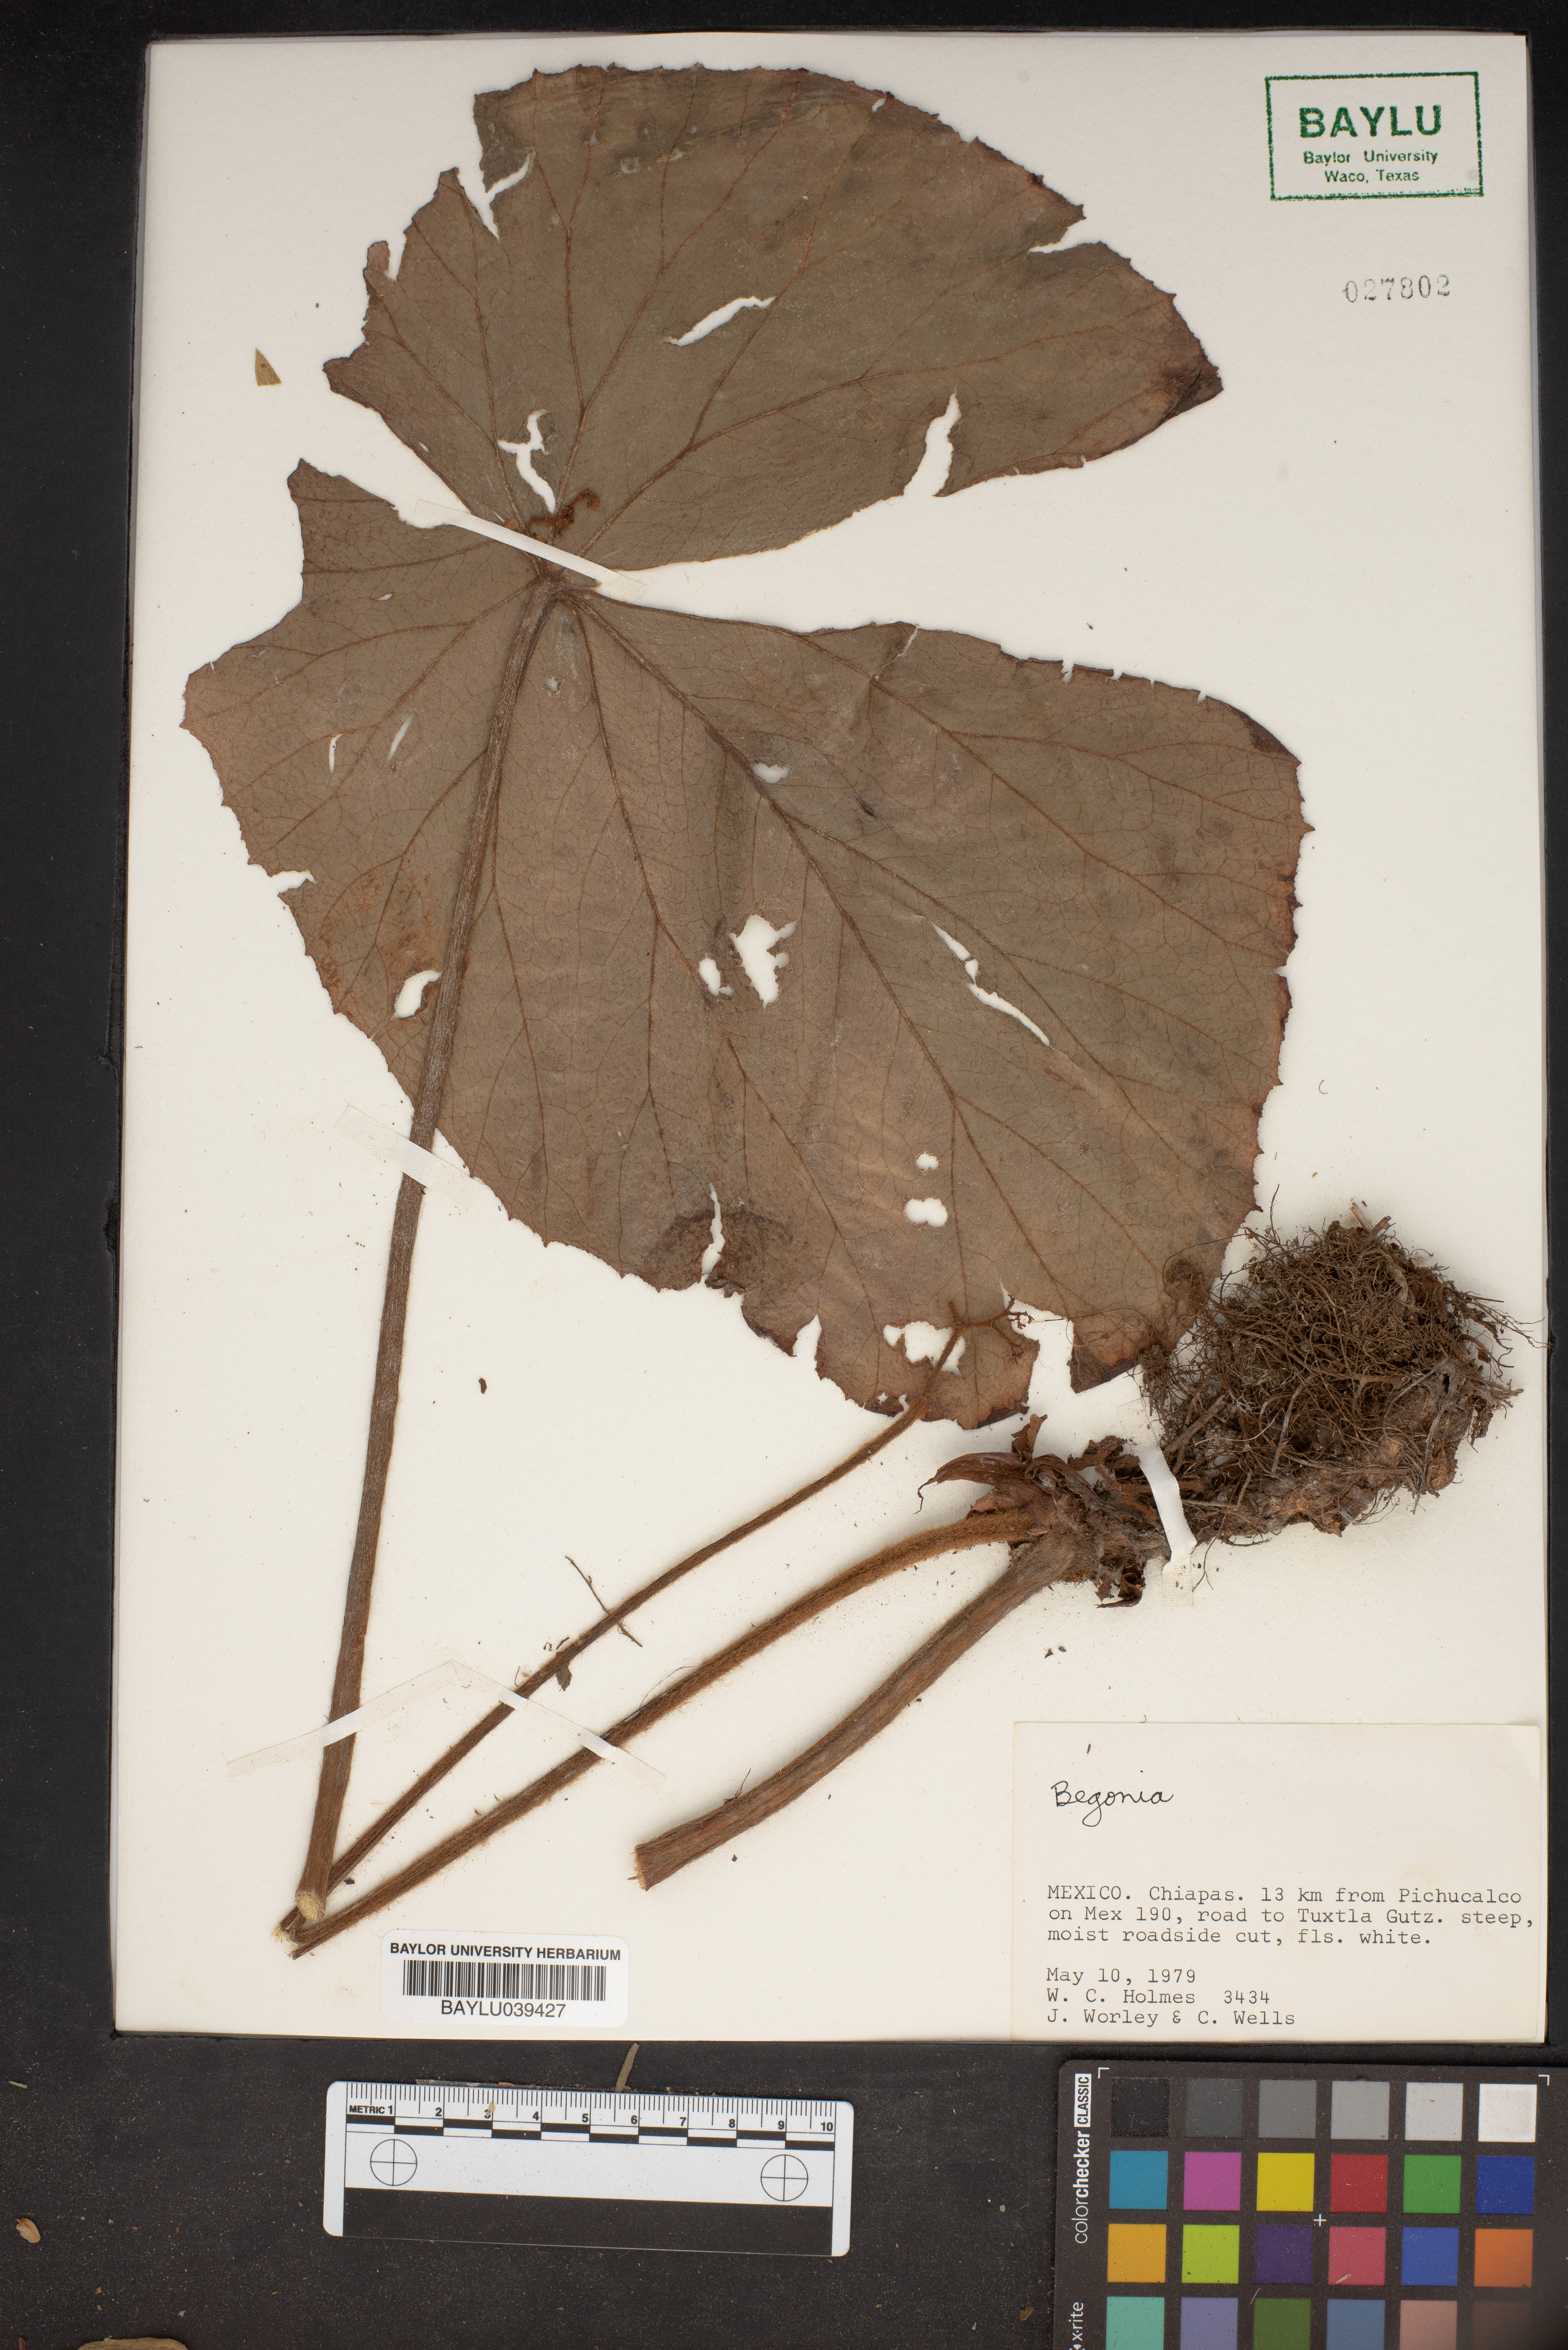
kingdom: Plantae
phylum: Tracheophyta
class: Magnoliopsida
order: Cucurbitales
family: Begoniaceae
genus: Begonia
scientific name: Begonia
